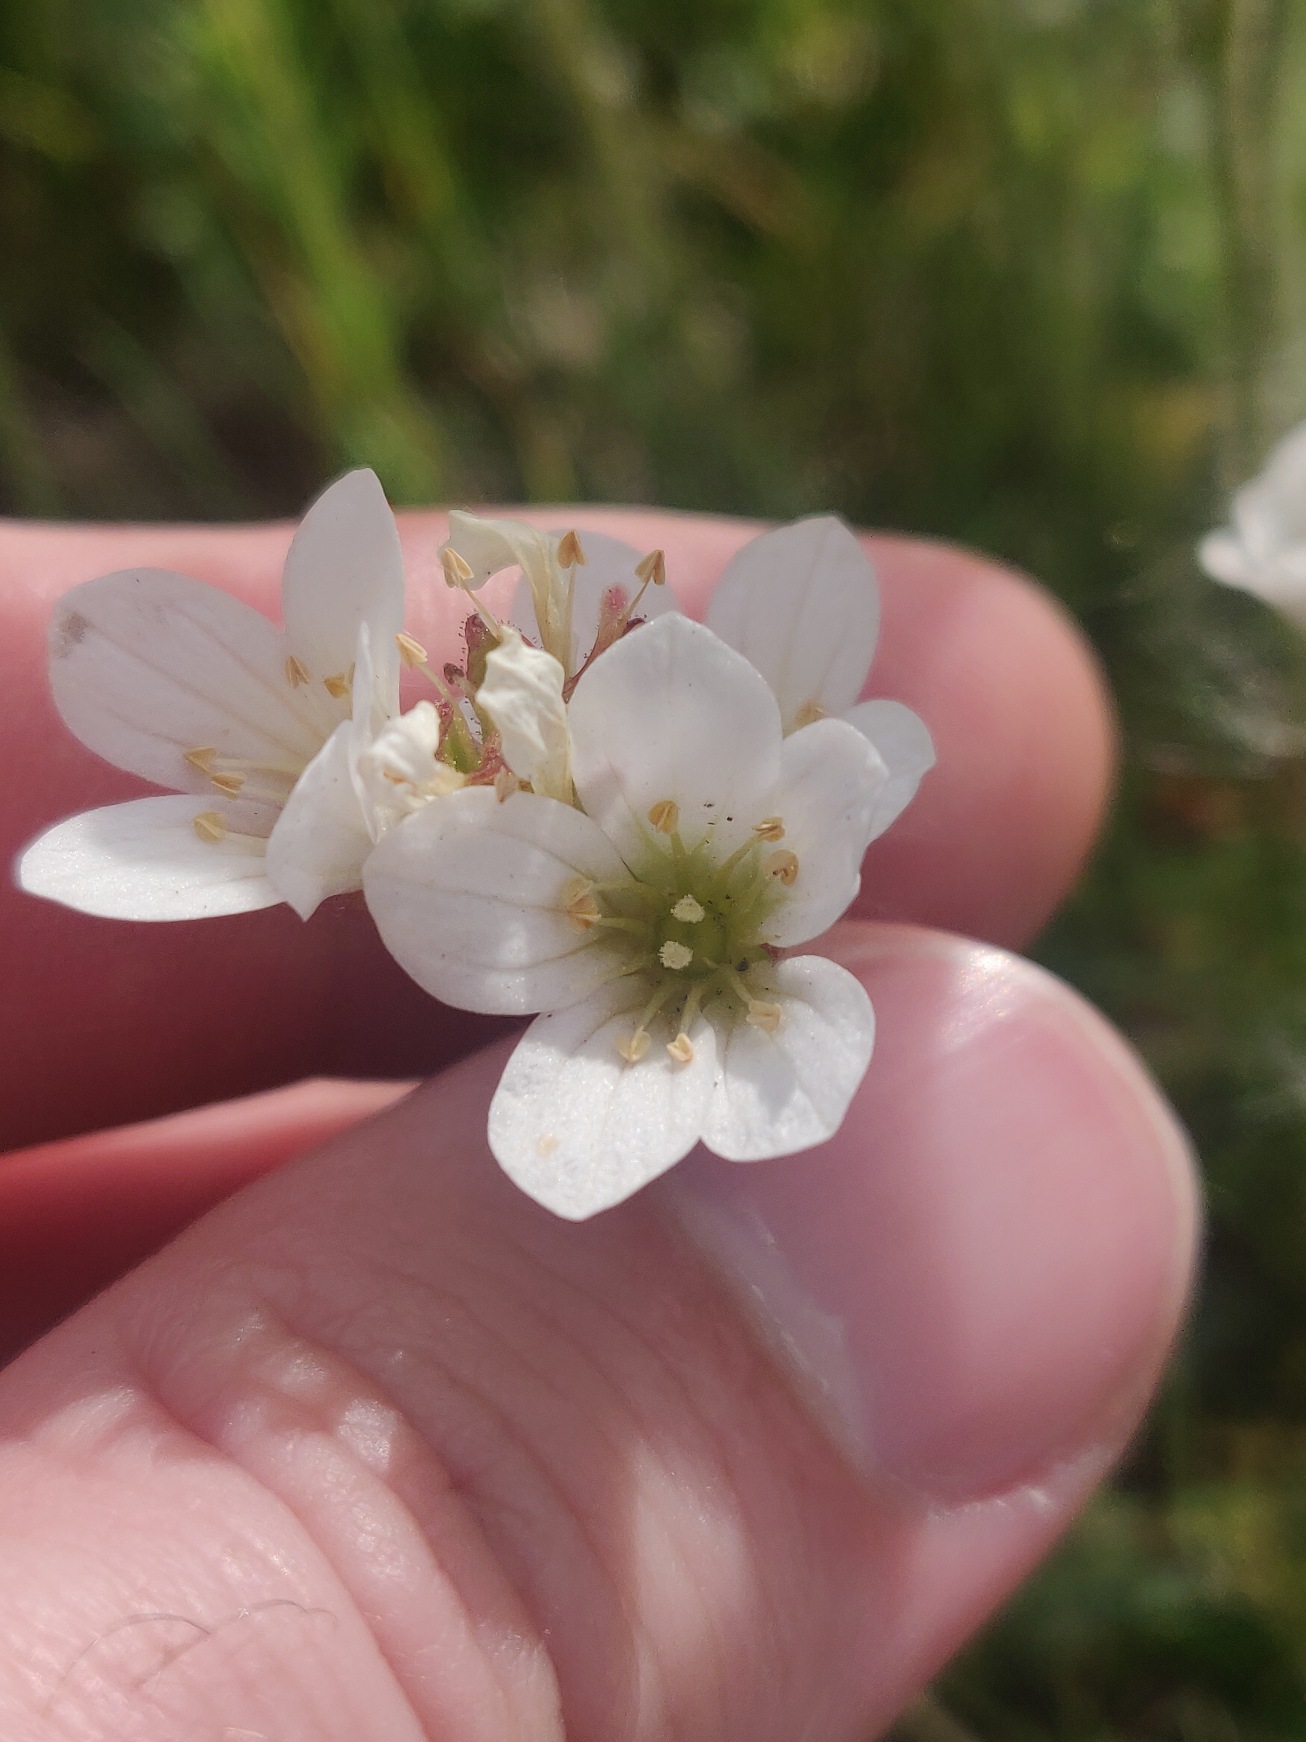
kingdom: Plantae
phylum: Tracheophyta
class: Magnoliopsida
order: Saxifragales
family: Saxifragaceae
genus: Saxifraga
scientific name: Saxifraga granulata
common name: Kornet stenbræk
